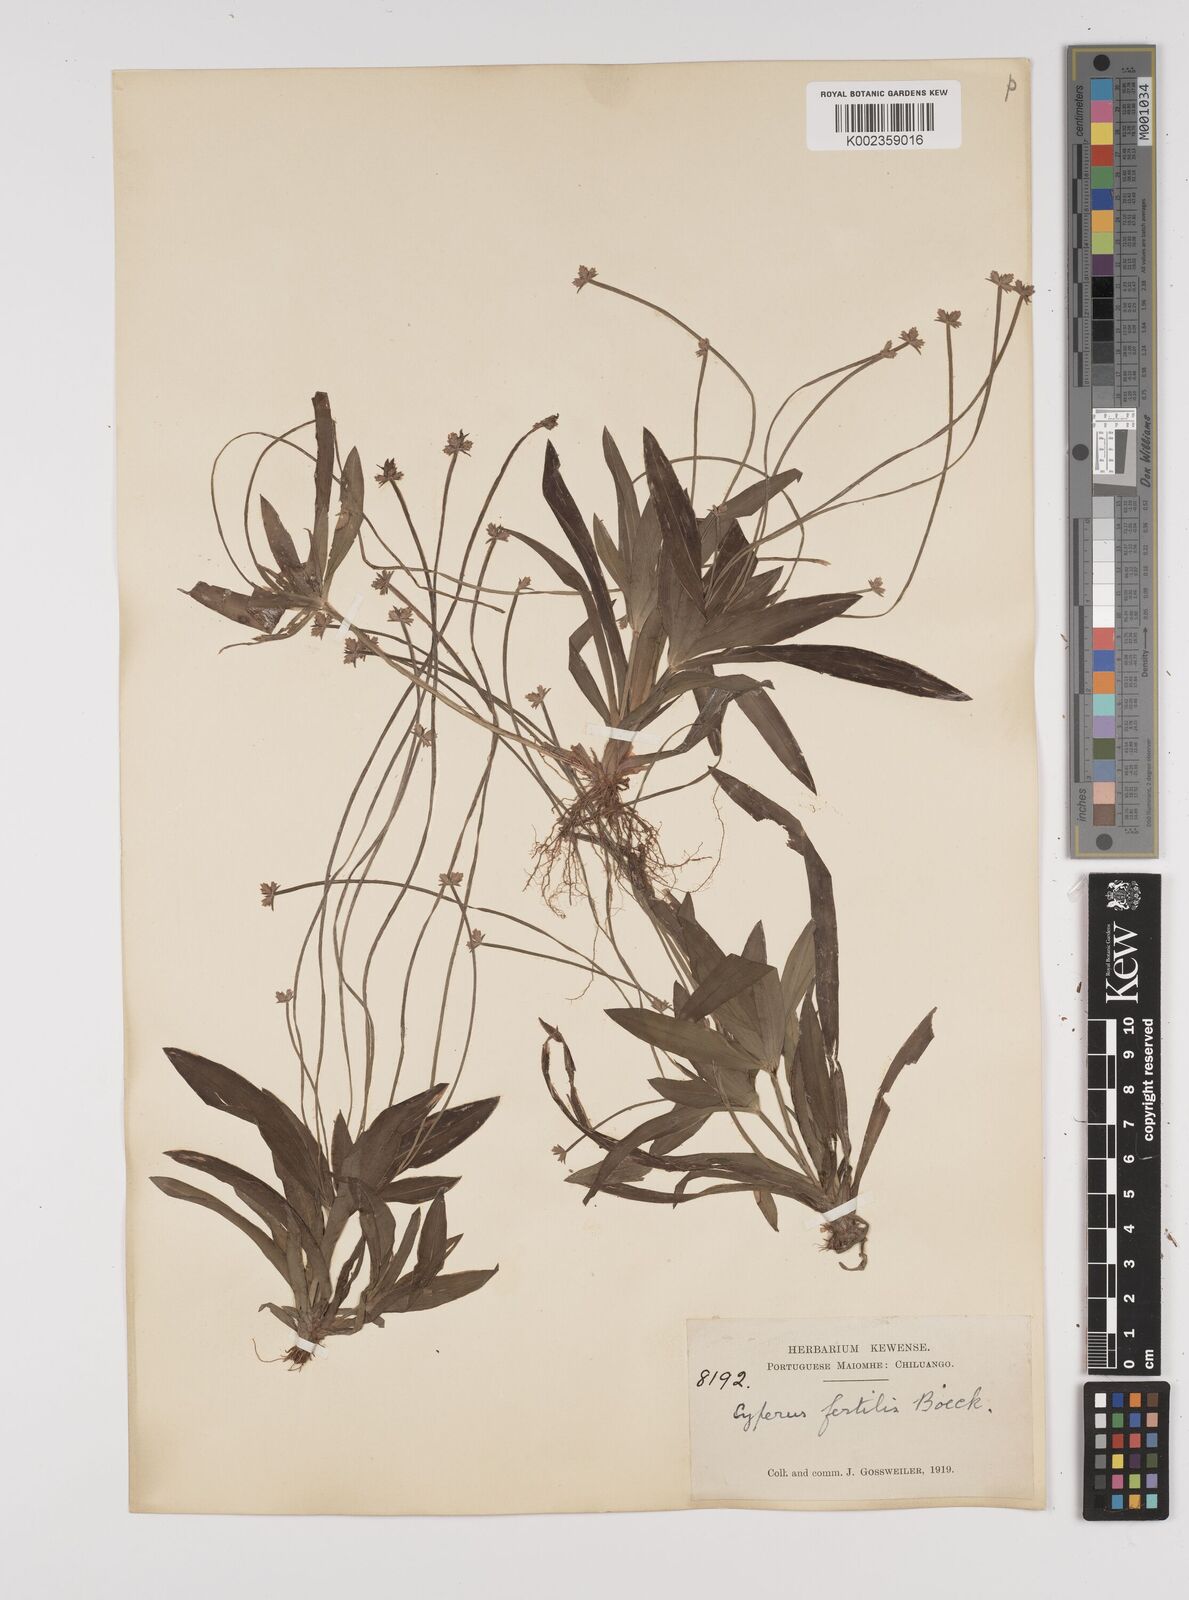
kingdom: Plantae
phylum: Tracheophyta
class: Liliopsida
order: Poales
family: Cyperaceae
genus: Cyperus
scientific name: Cyperus fertilis
